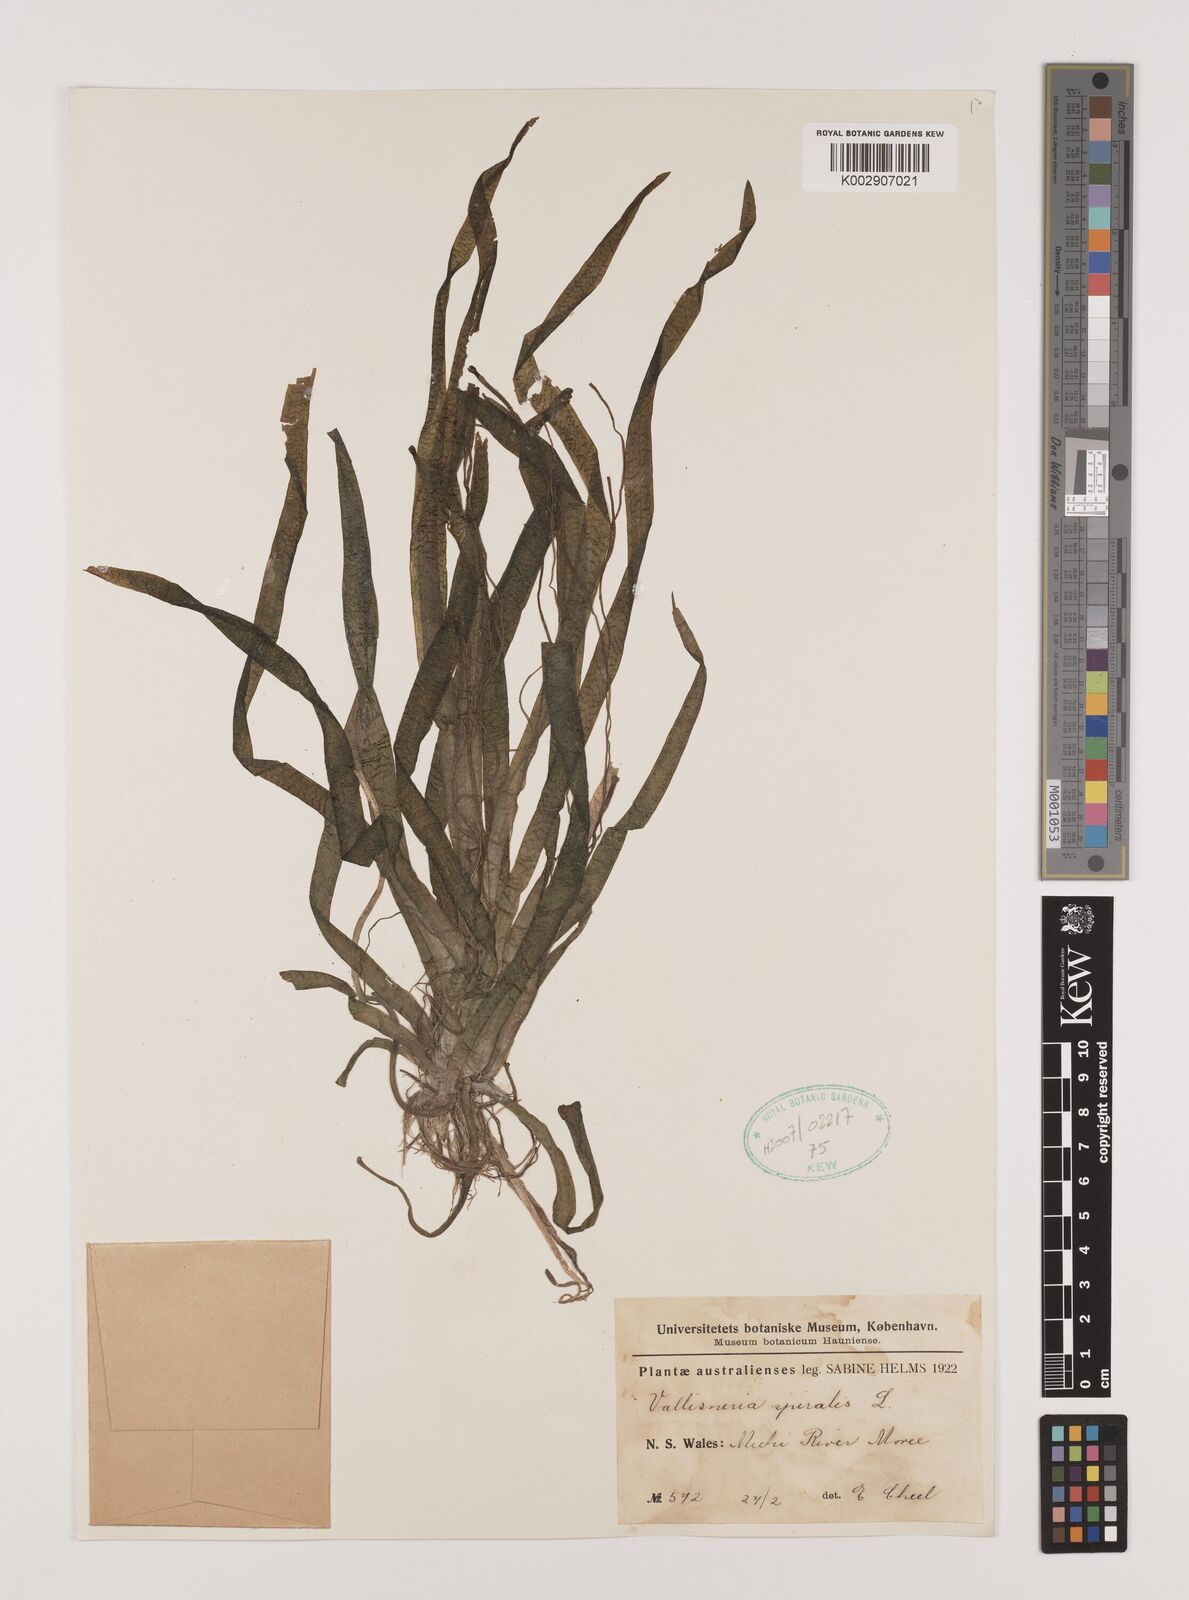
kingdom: Plantae
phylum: Tracheophyta
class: Liliopsida
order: Alismatales
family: Hydrocharitaceae
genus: Vallisneria
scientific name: Vallisneria spiralis
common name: Tapegrass
